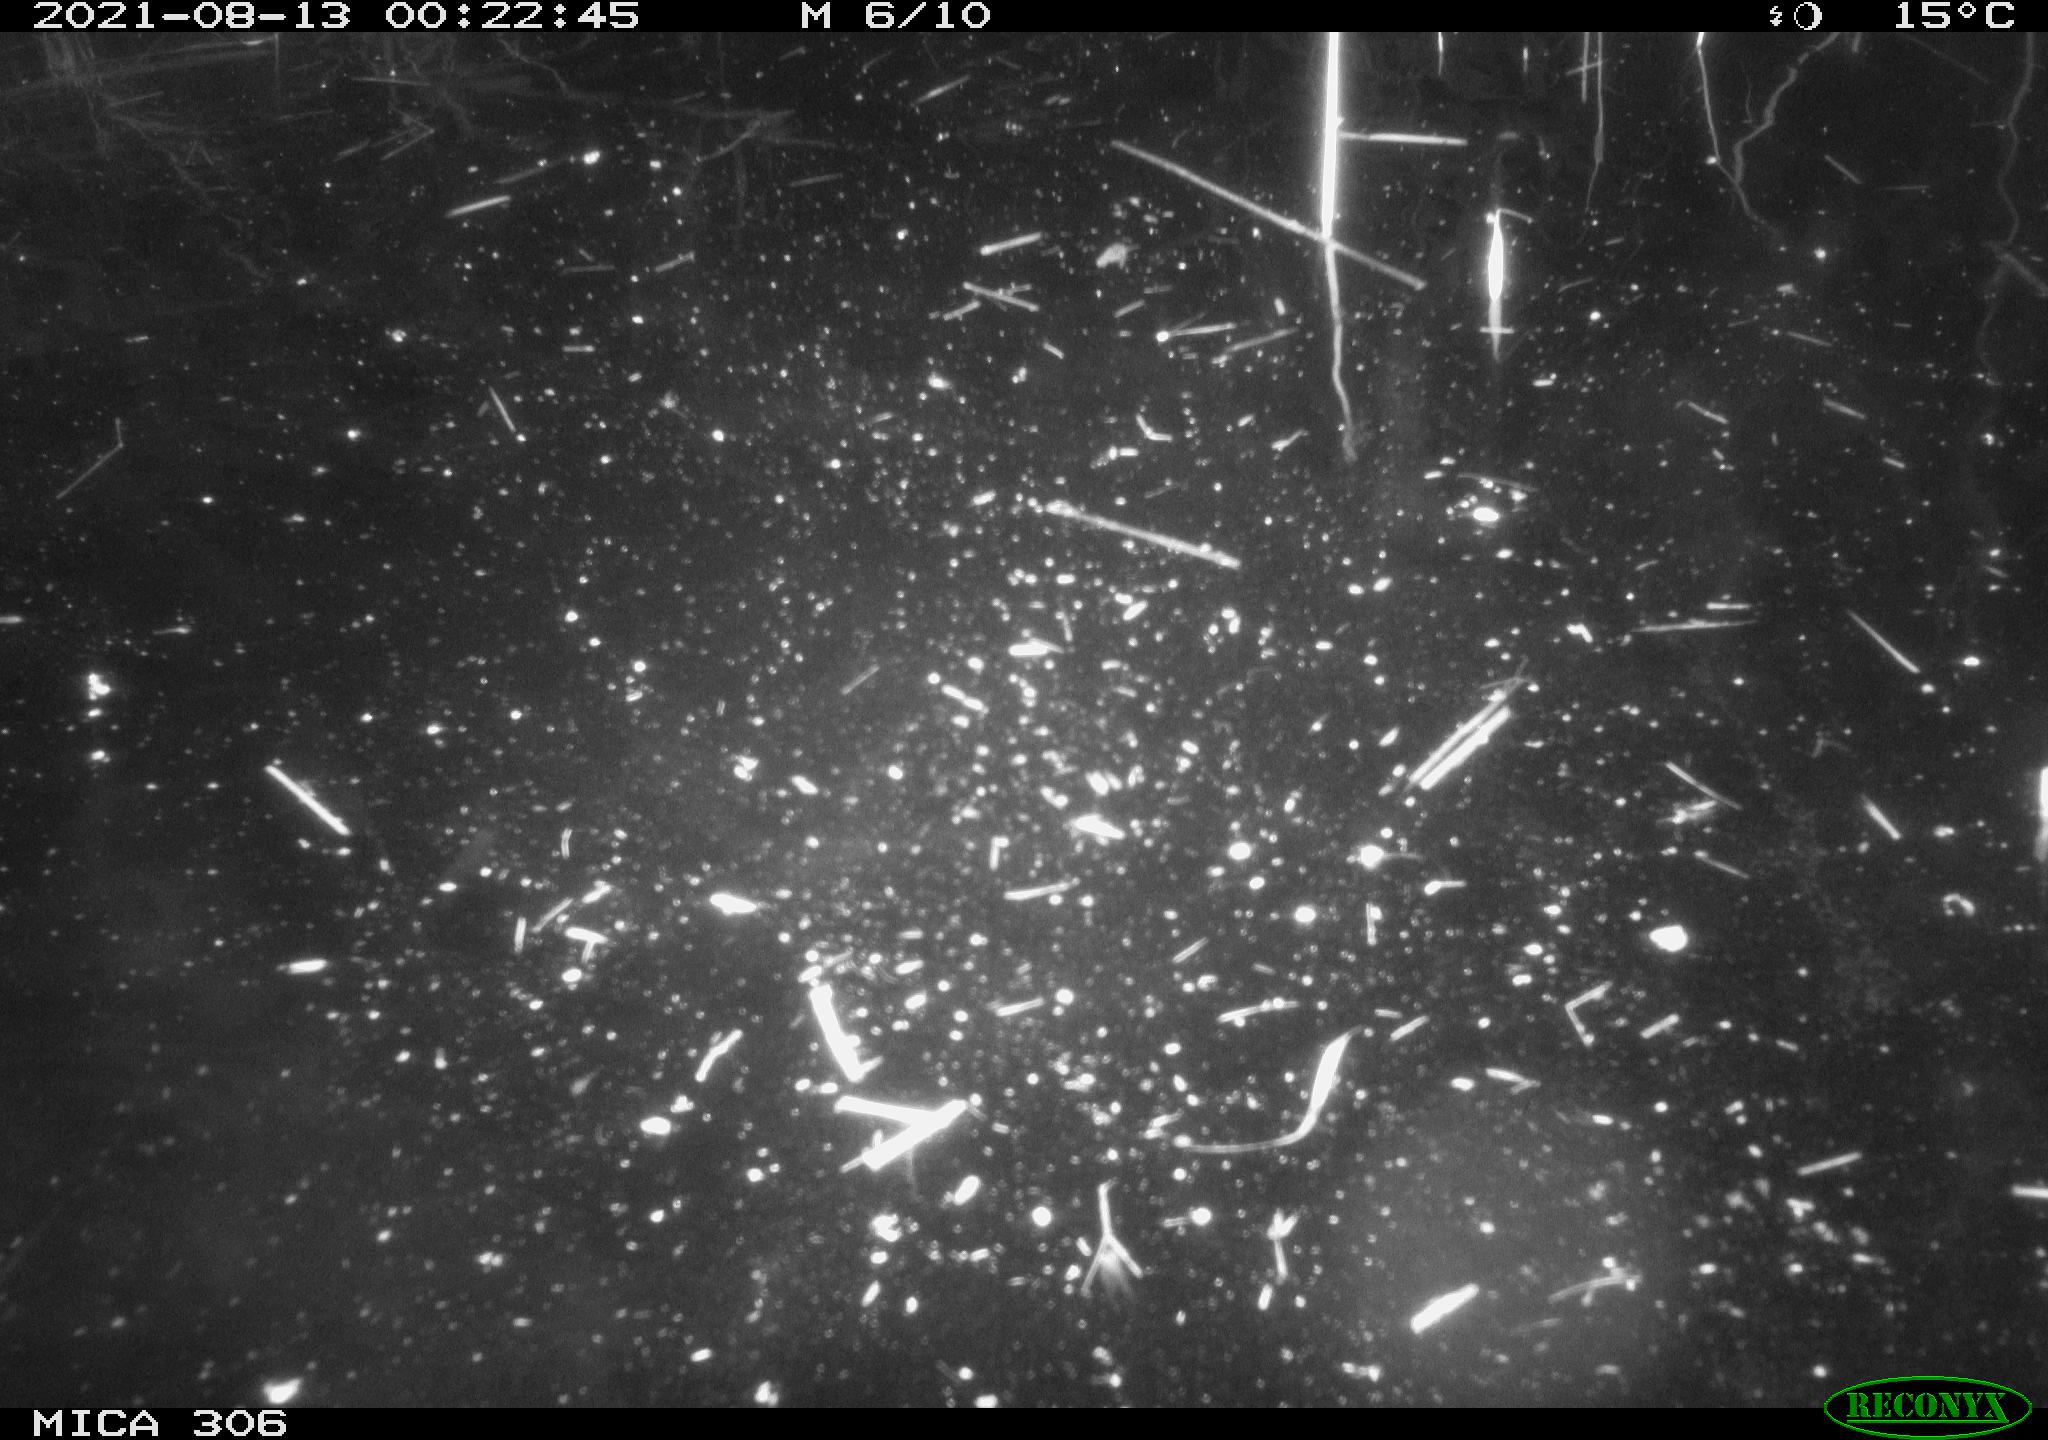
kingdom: Animalia
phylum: Chordata
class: Aves
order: Anseriformes
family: Anatidae
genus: Anas
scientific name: Anas platyrhynchos
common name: Mallard
